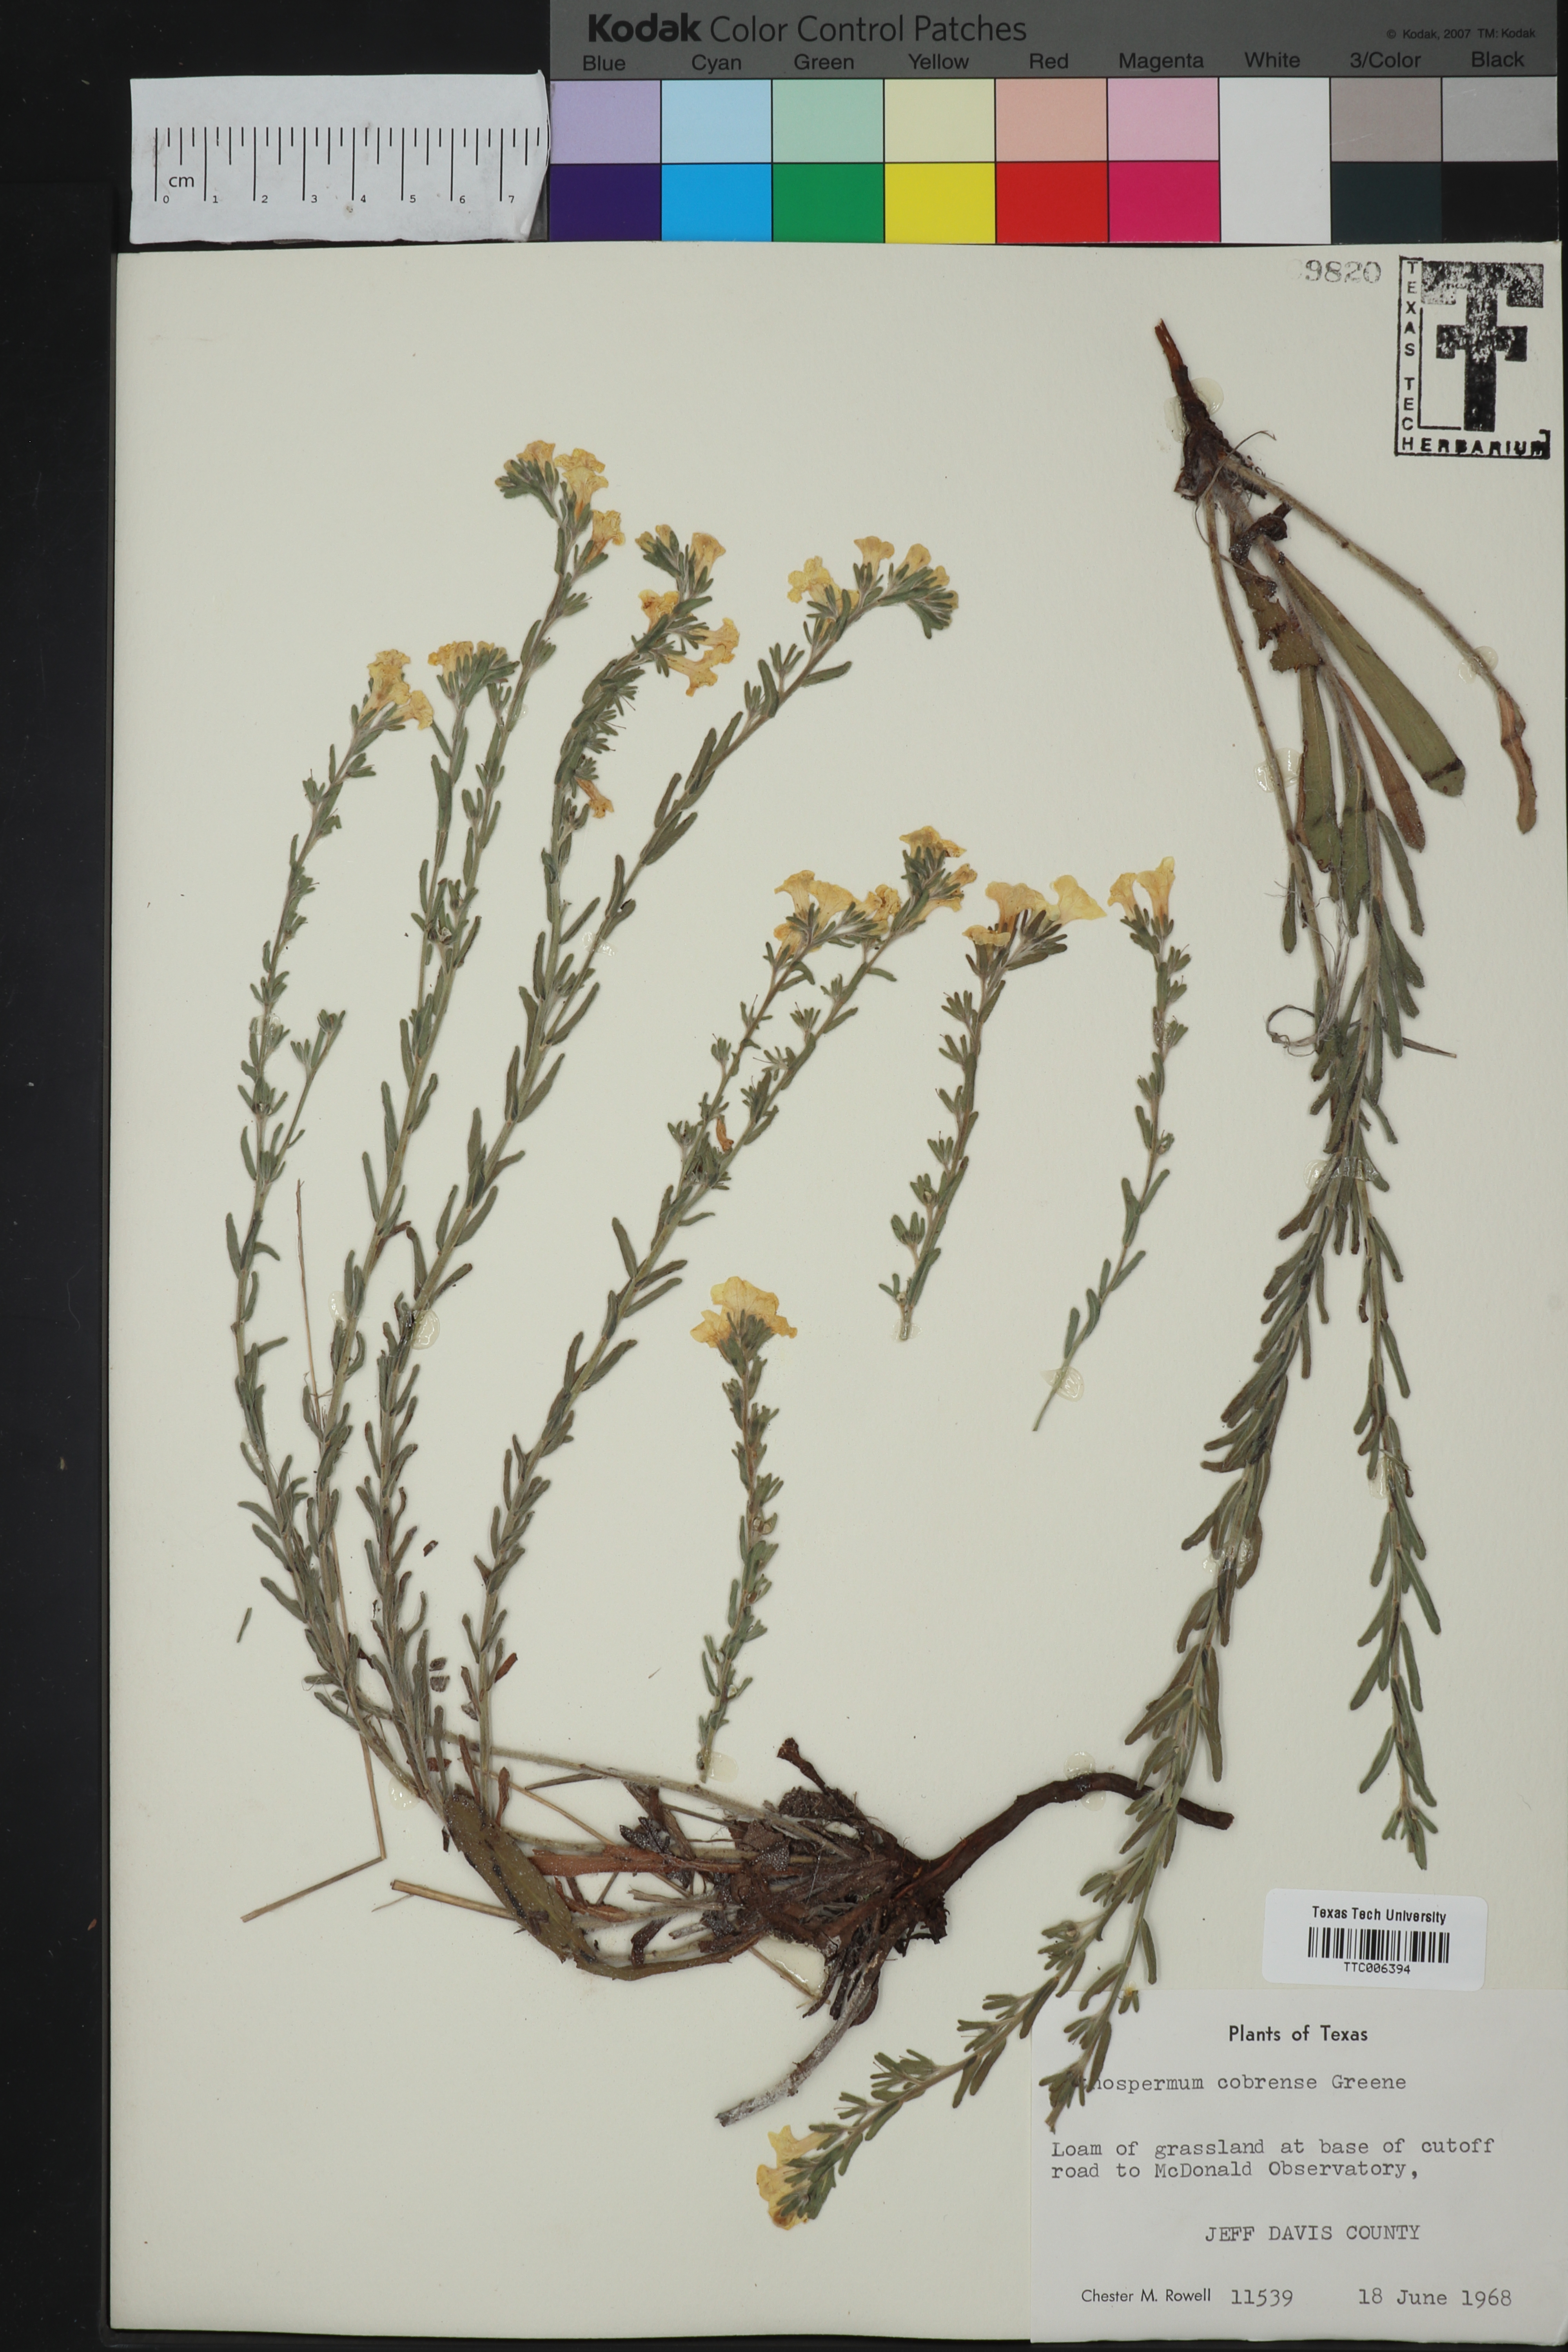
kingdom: Plantae
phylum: Tracheophyta
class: Magnoliopsida
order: Boraginales
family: Boraginaceae
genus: Lithospermum
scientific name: Lithospermum cobrense
